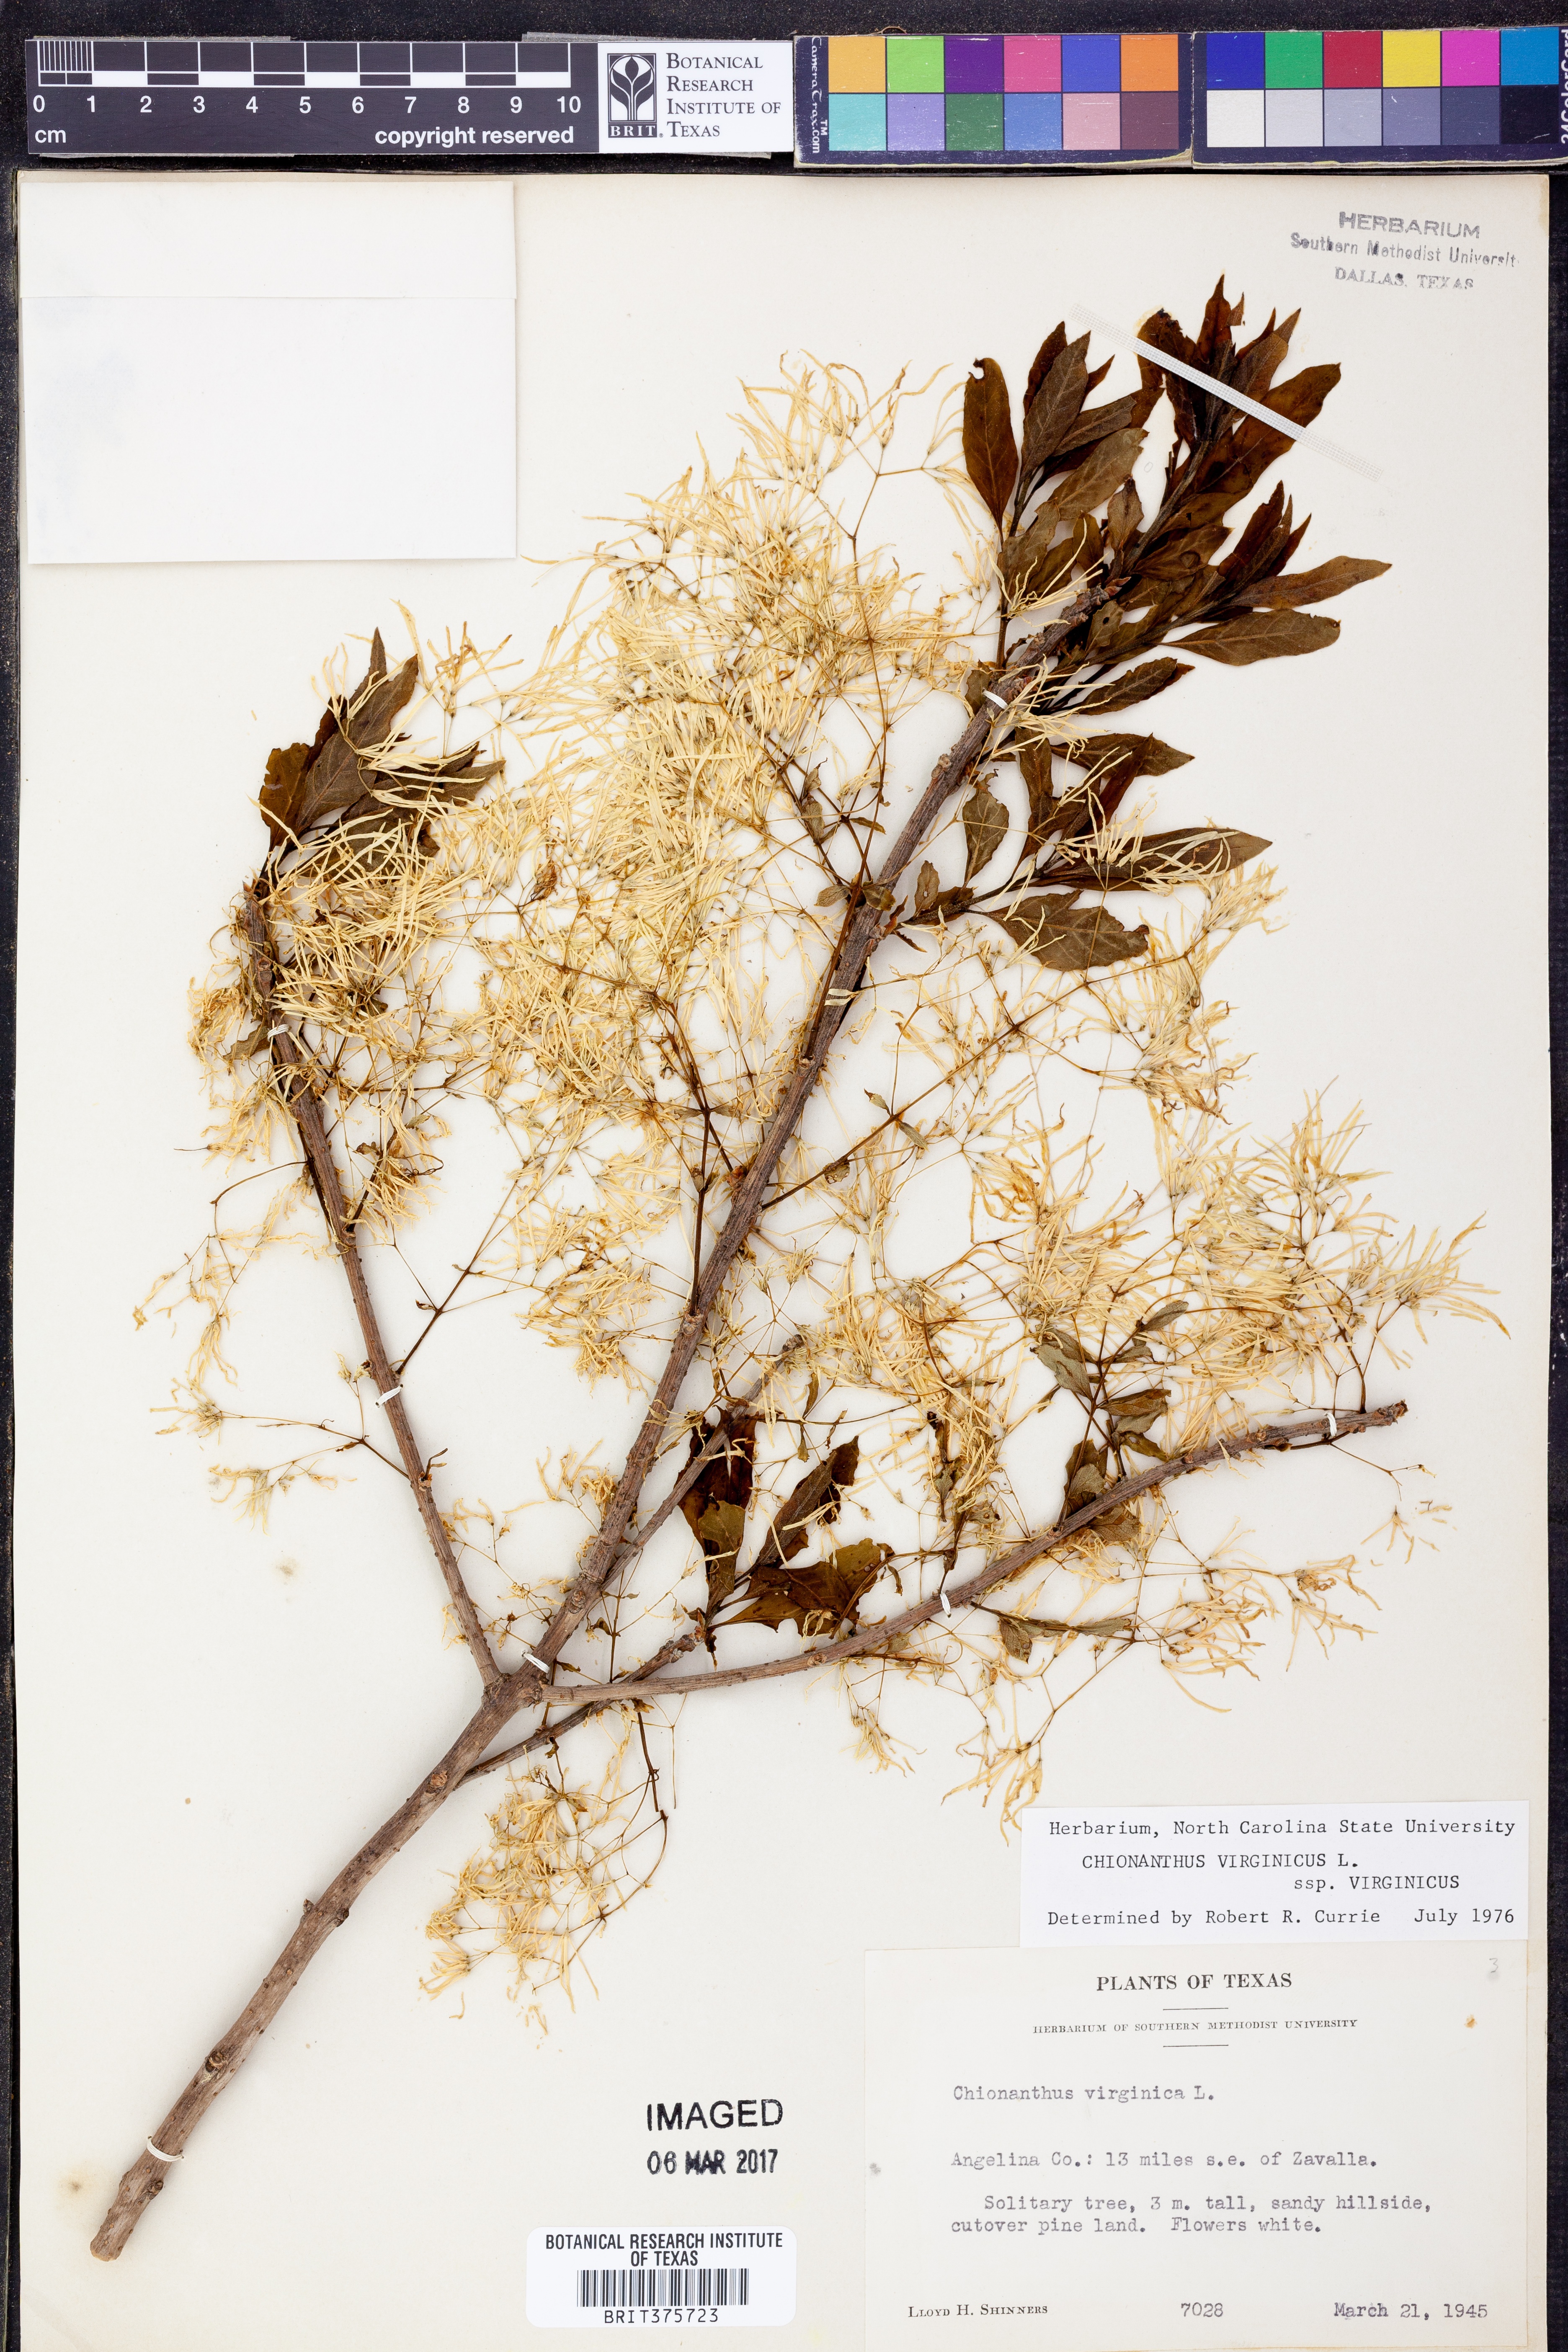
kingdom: Plantae
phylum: Tracheophyta
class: Magnoliopsida
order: Lamiales
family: Oleaceae
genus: Chionanthus
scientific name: Chionanthus virginicus
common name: American fringetree
